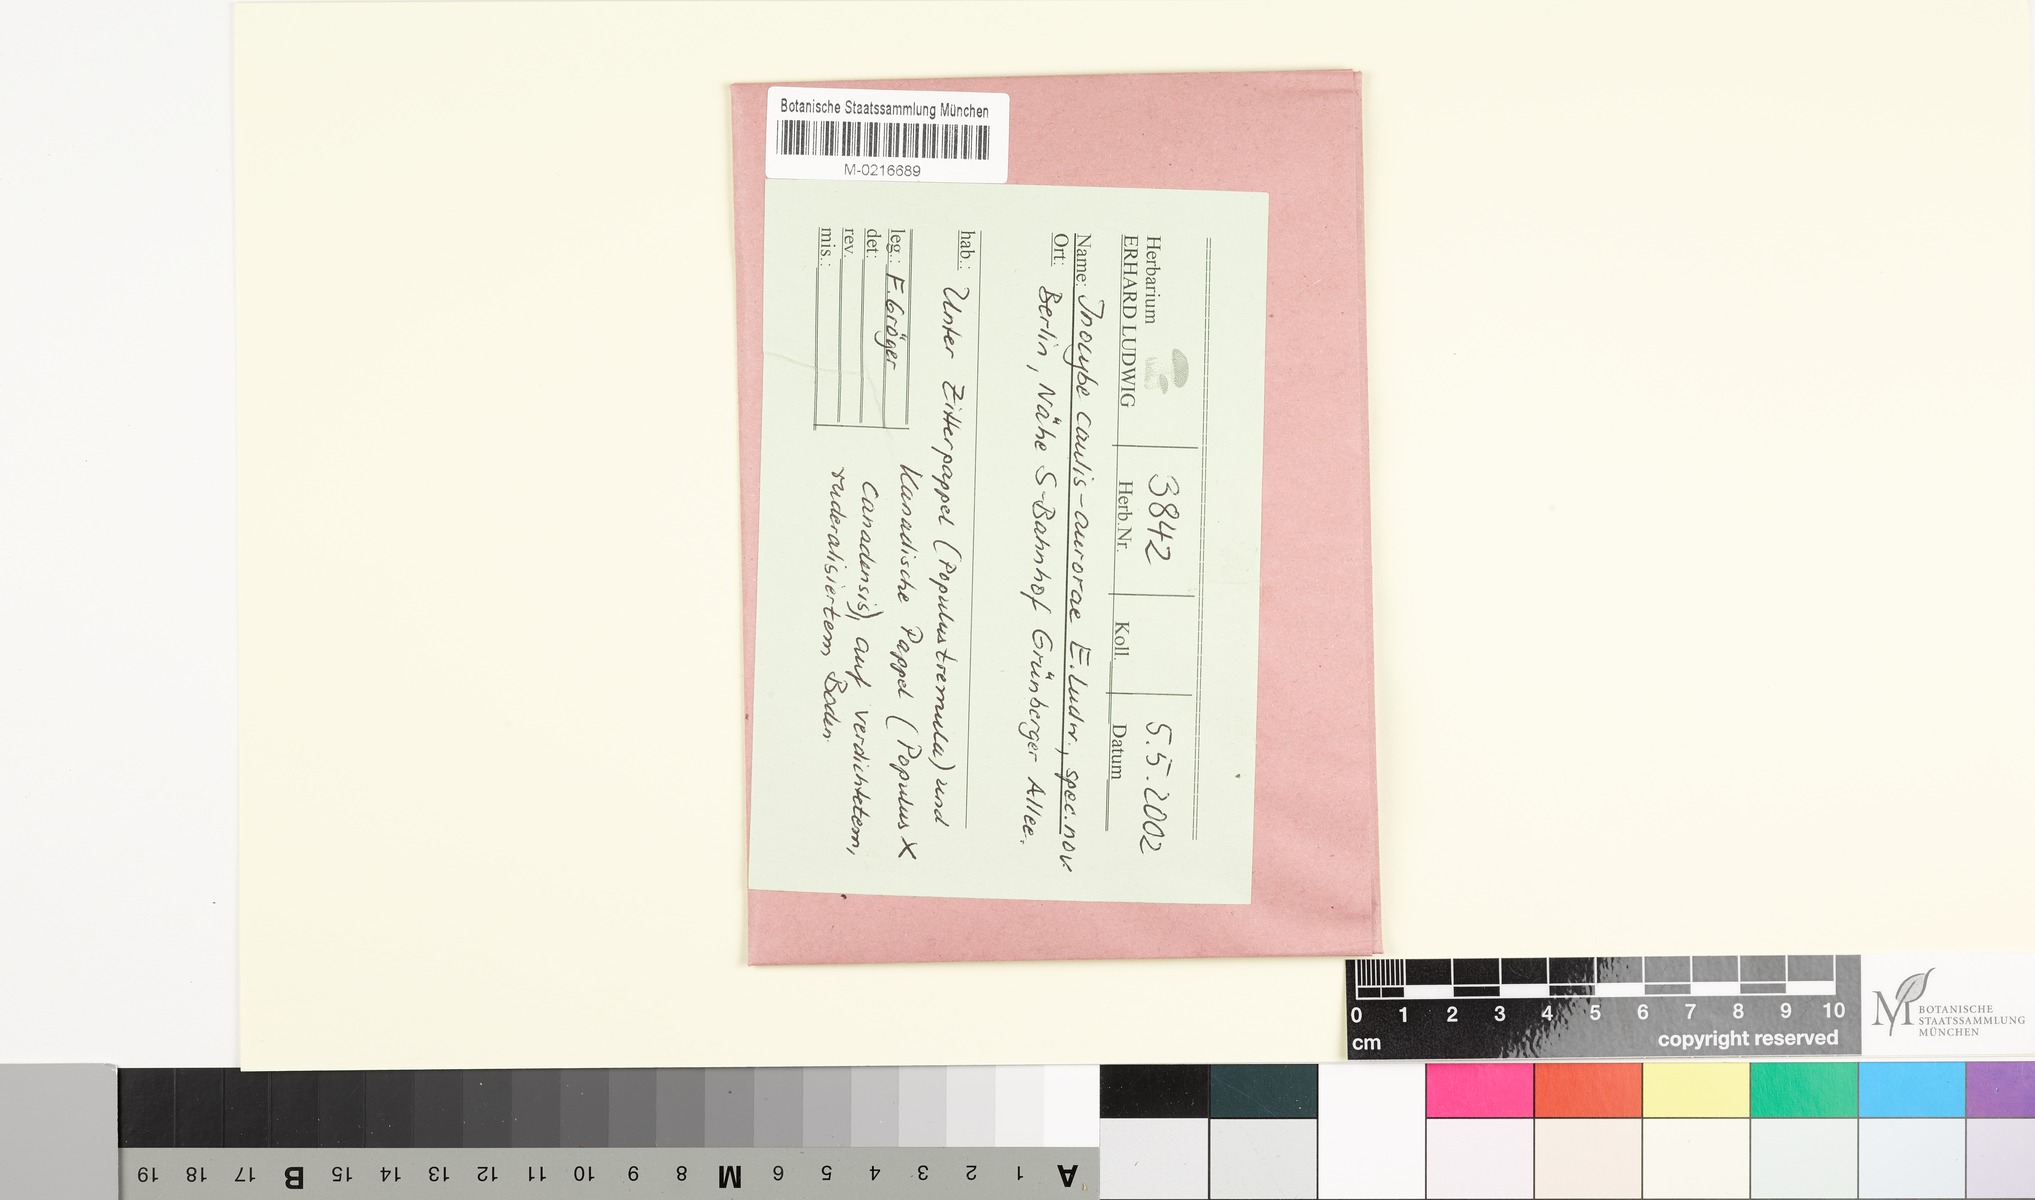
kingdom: Fungi
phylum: Basidiomycota
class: Agaricomycetes
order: Agaricales
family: Inocybaceae
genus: Inocybe
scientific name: Inocybe caulis-aurorae
